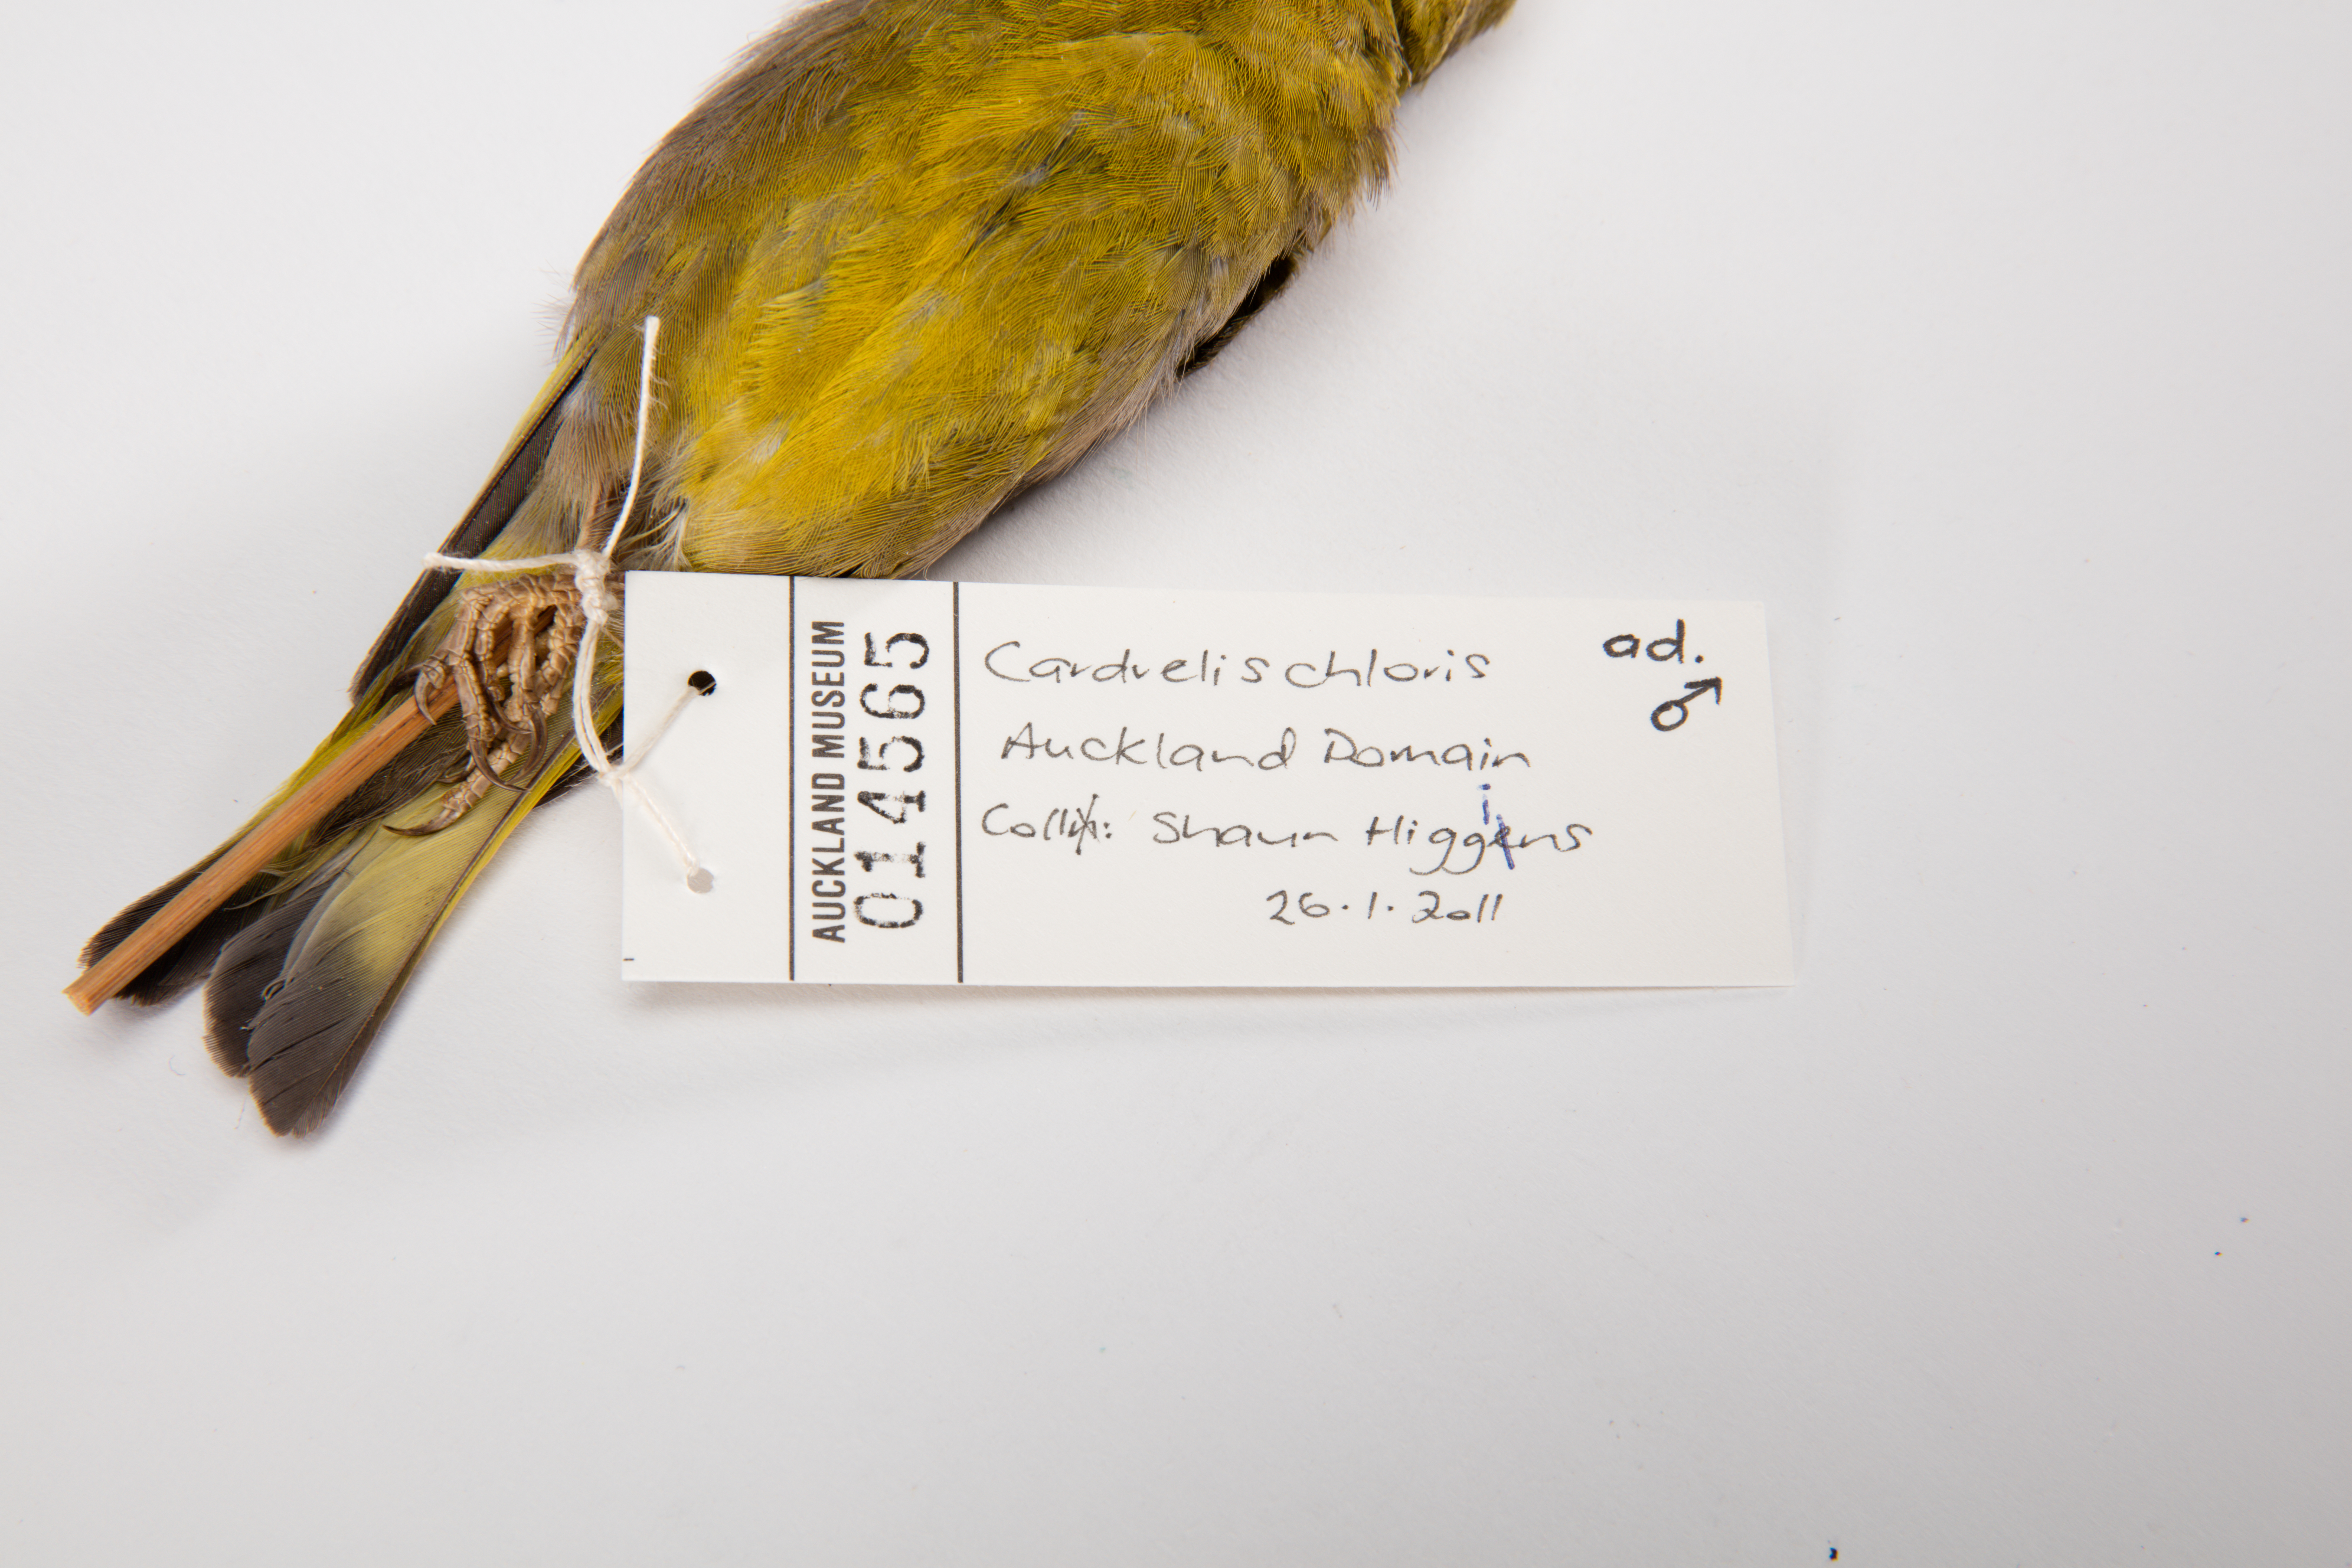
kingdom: Plantae
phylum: Tracheophyta
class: Liliopsida
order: Poales
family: Poaceae
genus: Chloris
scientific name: Chloris chloris
